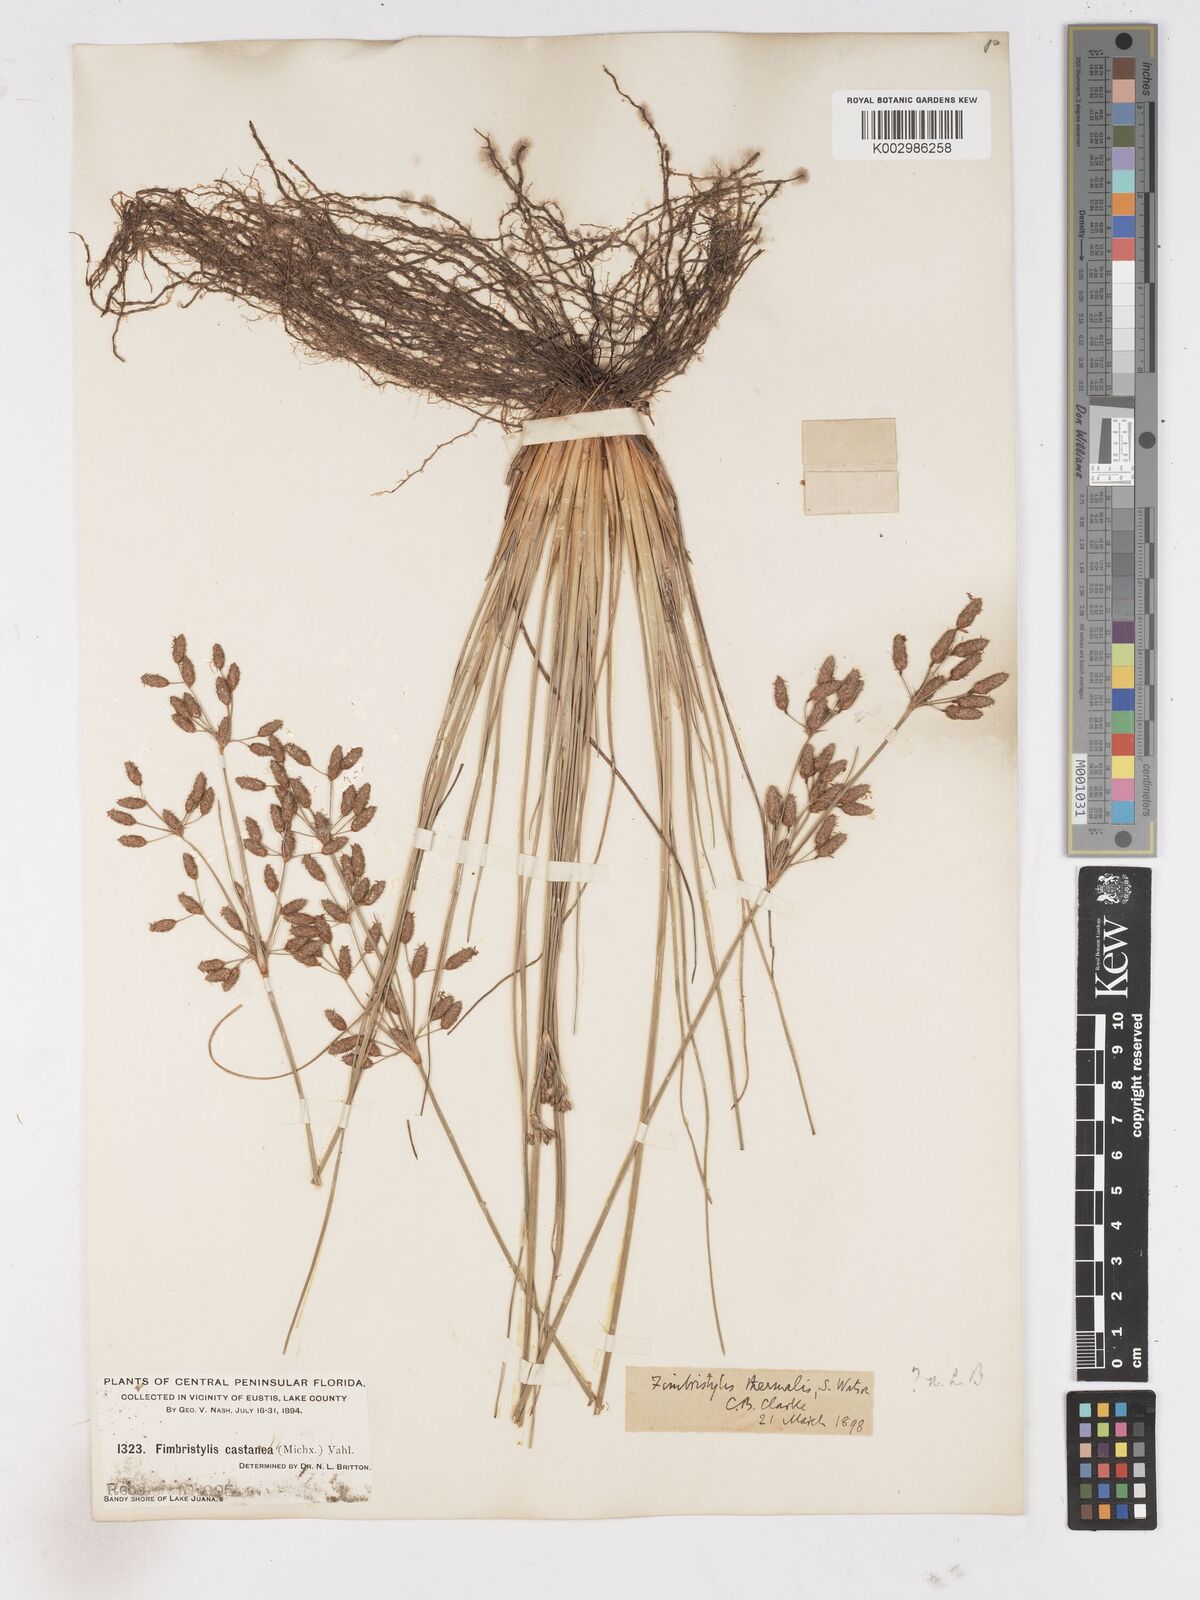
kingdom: Plantae
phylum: Tracheophyta
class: Liliopsida
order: Poales
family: Cyperaceae
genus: Fimbristylis
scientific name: Fimbristylis thermalis
